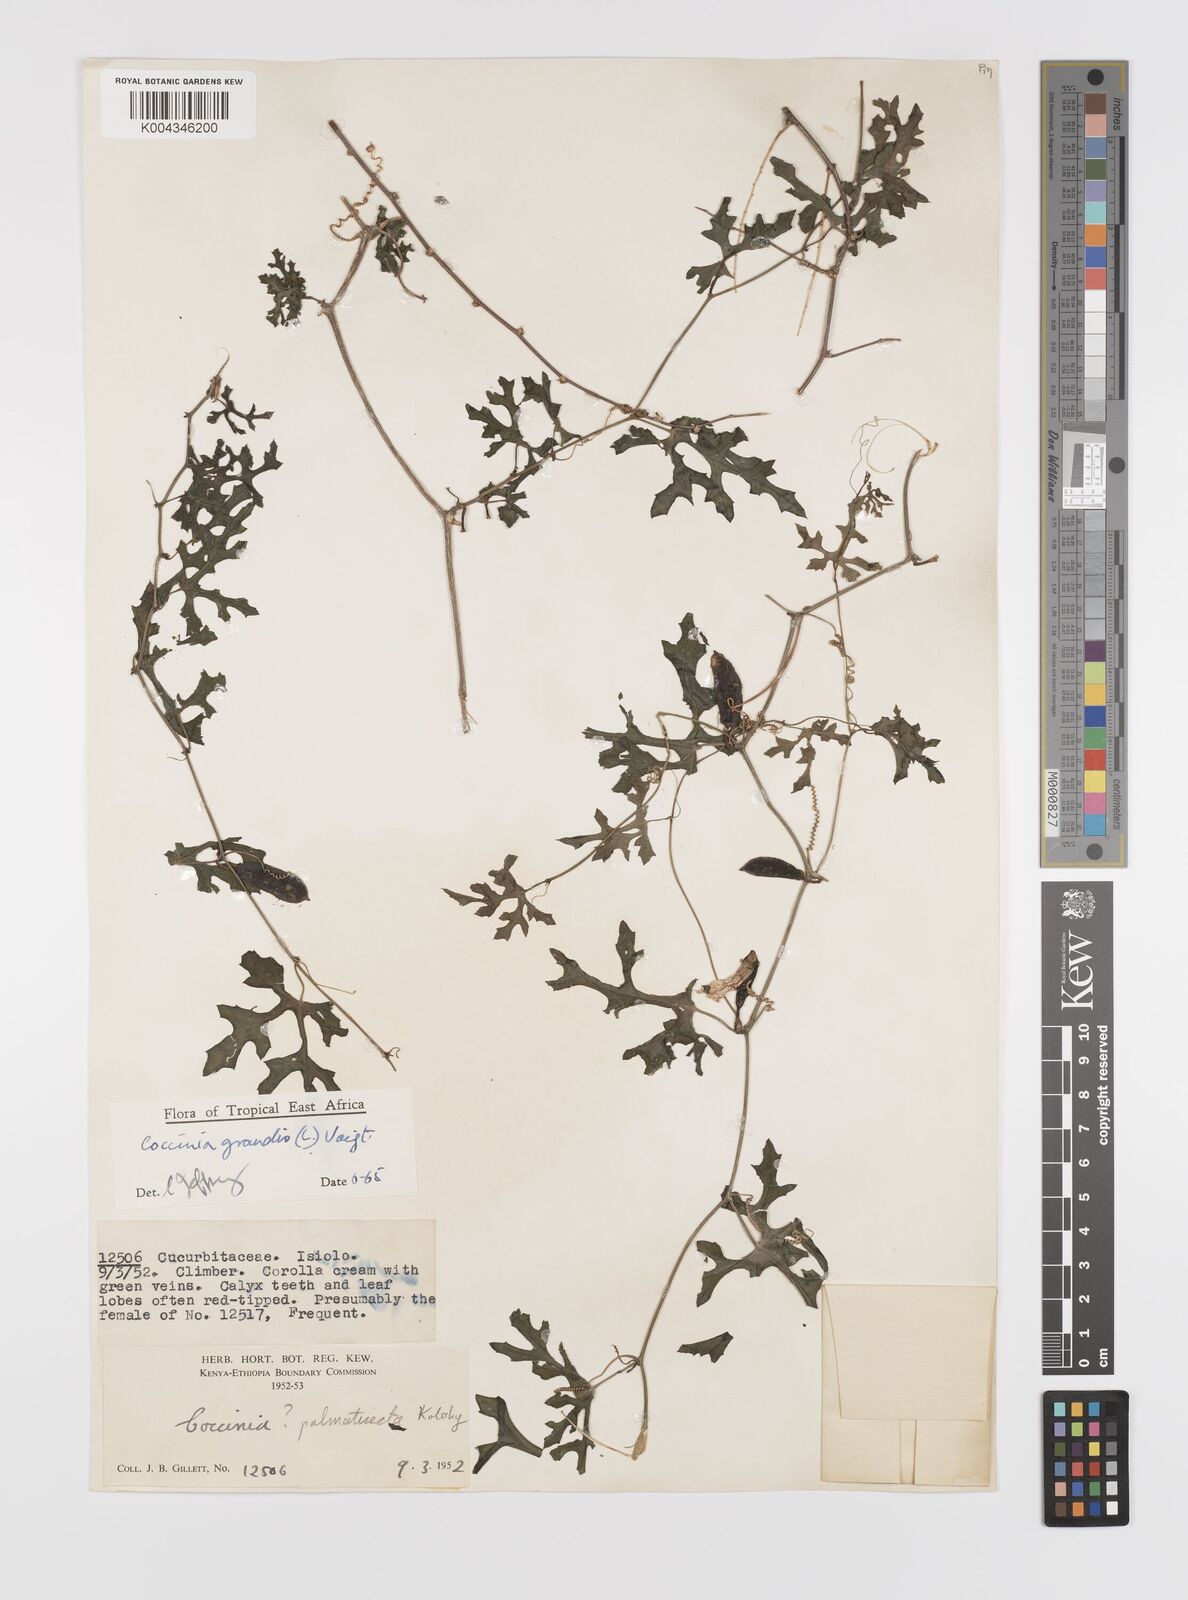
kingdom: Plantae
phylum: Tracheophyta
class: Magnoliopsida
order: Cucurbitales
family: Cucurbitaceae
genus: Coccinia
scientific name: Coccinia grandis
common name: Ivy gourd
